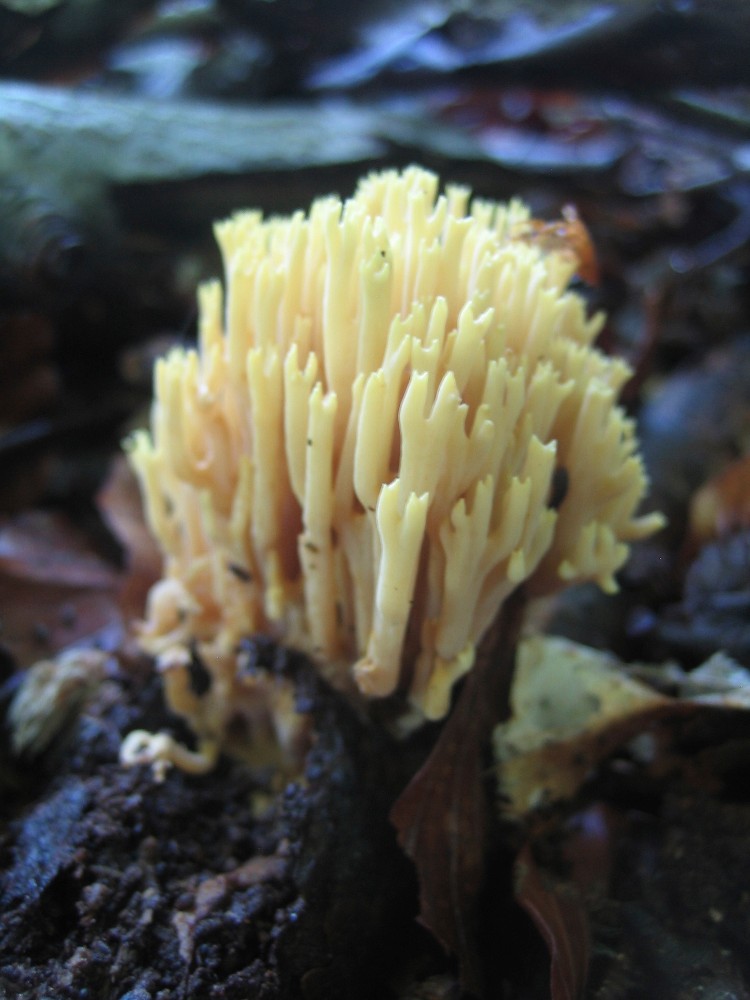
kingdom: Fungi
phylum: Basidiomycota
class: Agaricomycetes
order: Gomphales
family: Gomphaceae
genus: Ramaria
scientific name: Ramaria stricta
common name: rank koralsvamp
